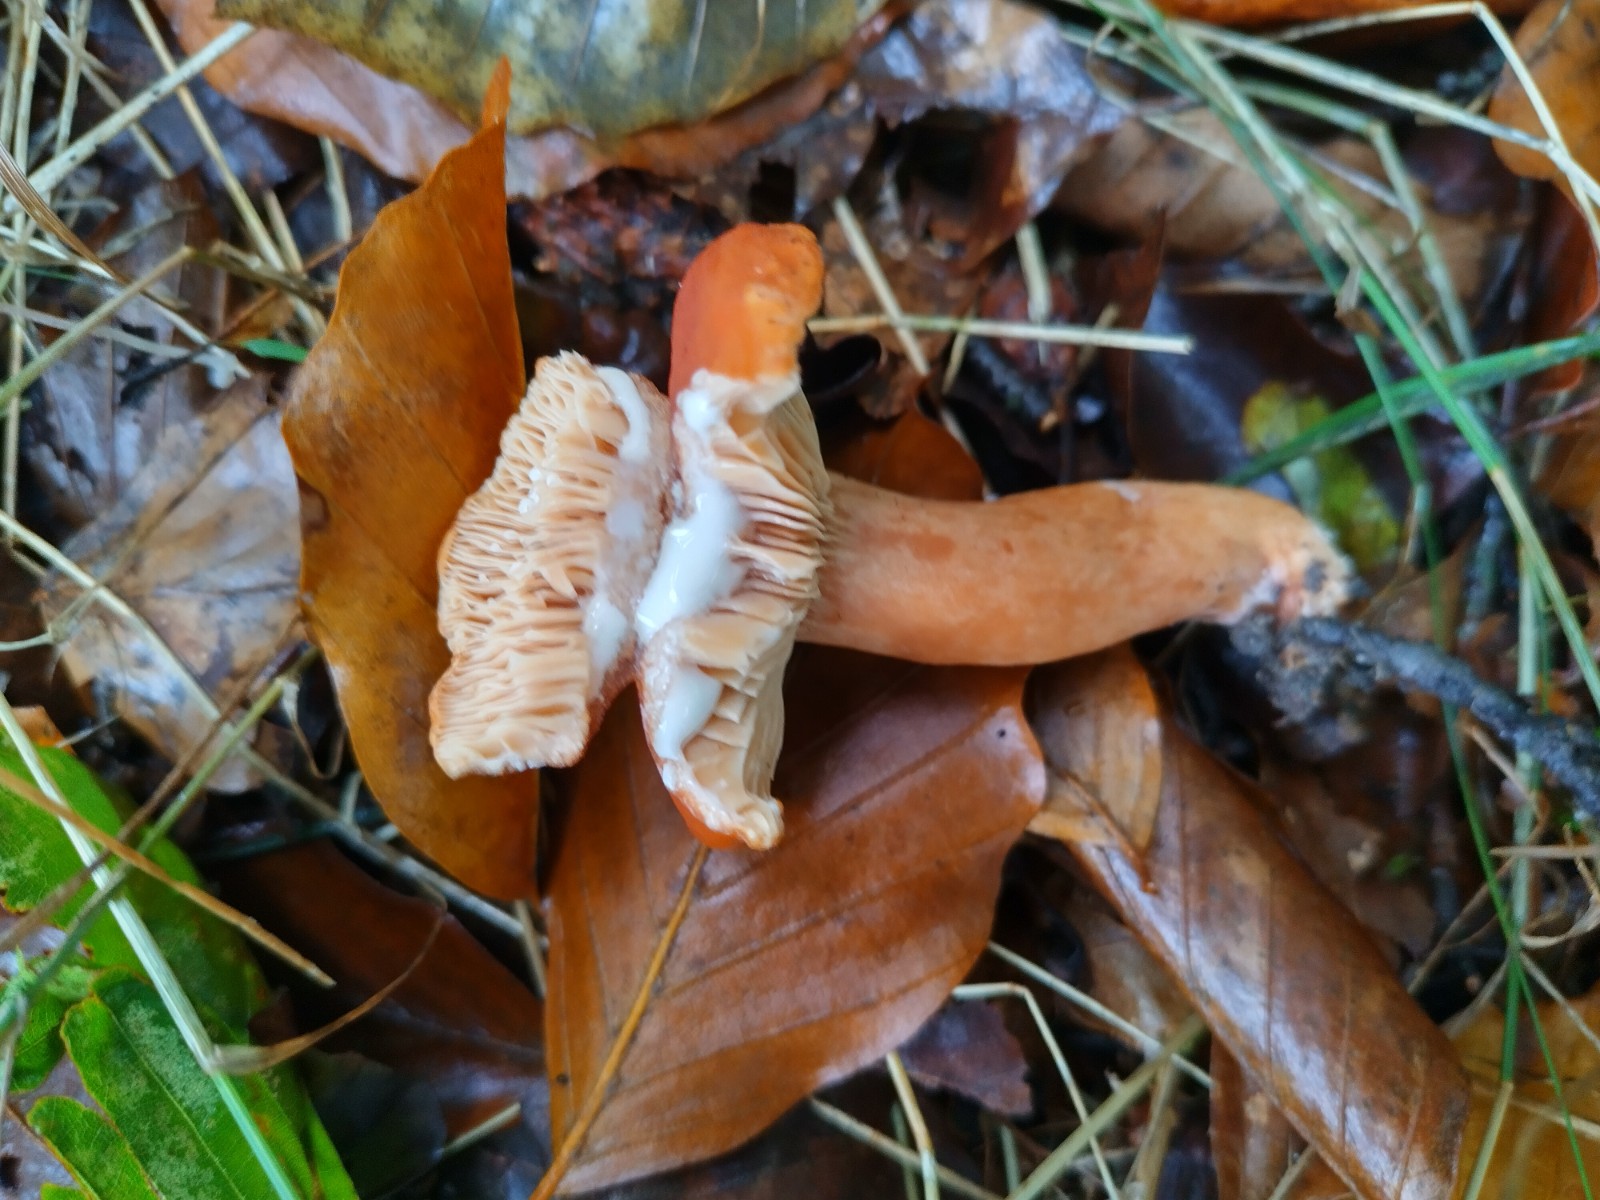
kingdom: Fungi
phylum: Basidiomycota
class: Agaricomycetes
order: Russulales
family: Russulaceae
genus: Lactarius
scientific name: Lactarius fulvissimus
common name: ræve-mælkehat
